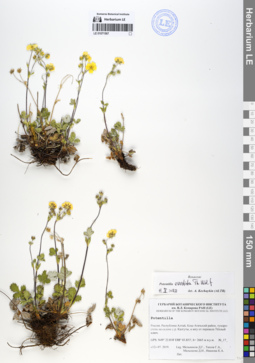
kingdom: Plantae
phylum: Tracheophyta
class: Magnoliopsida
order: Rosales
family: Rosaceae
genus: Potentilla
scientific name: Potentilla evestita
